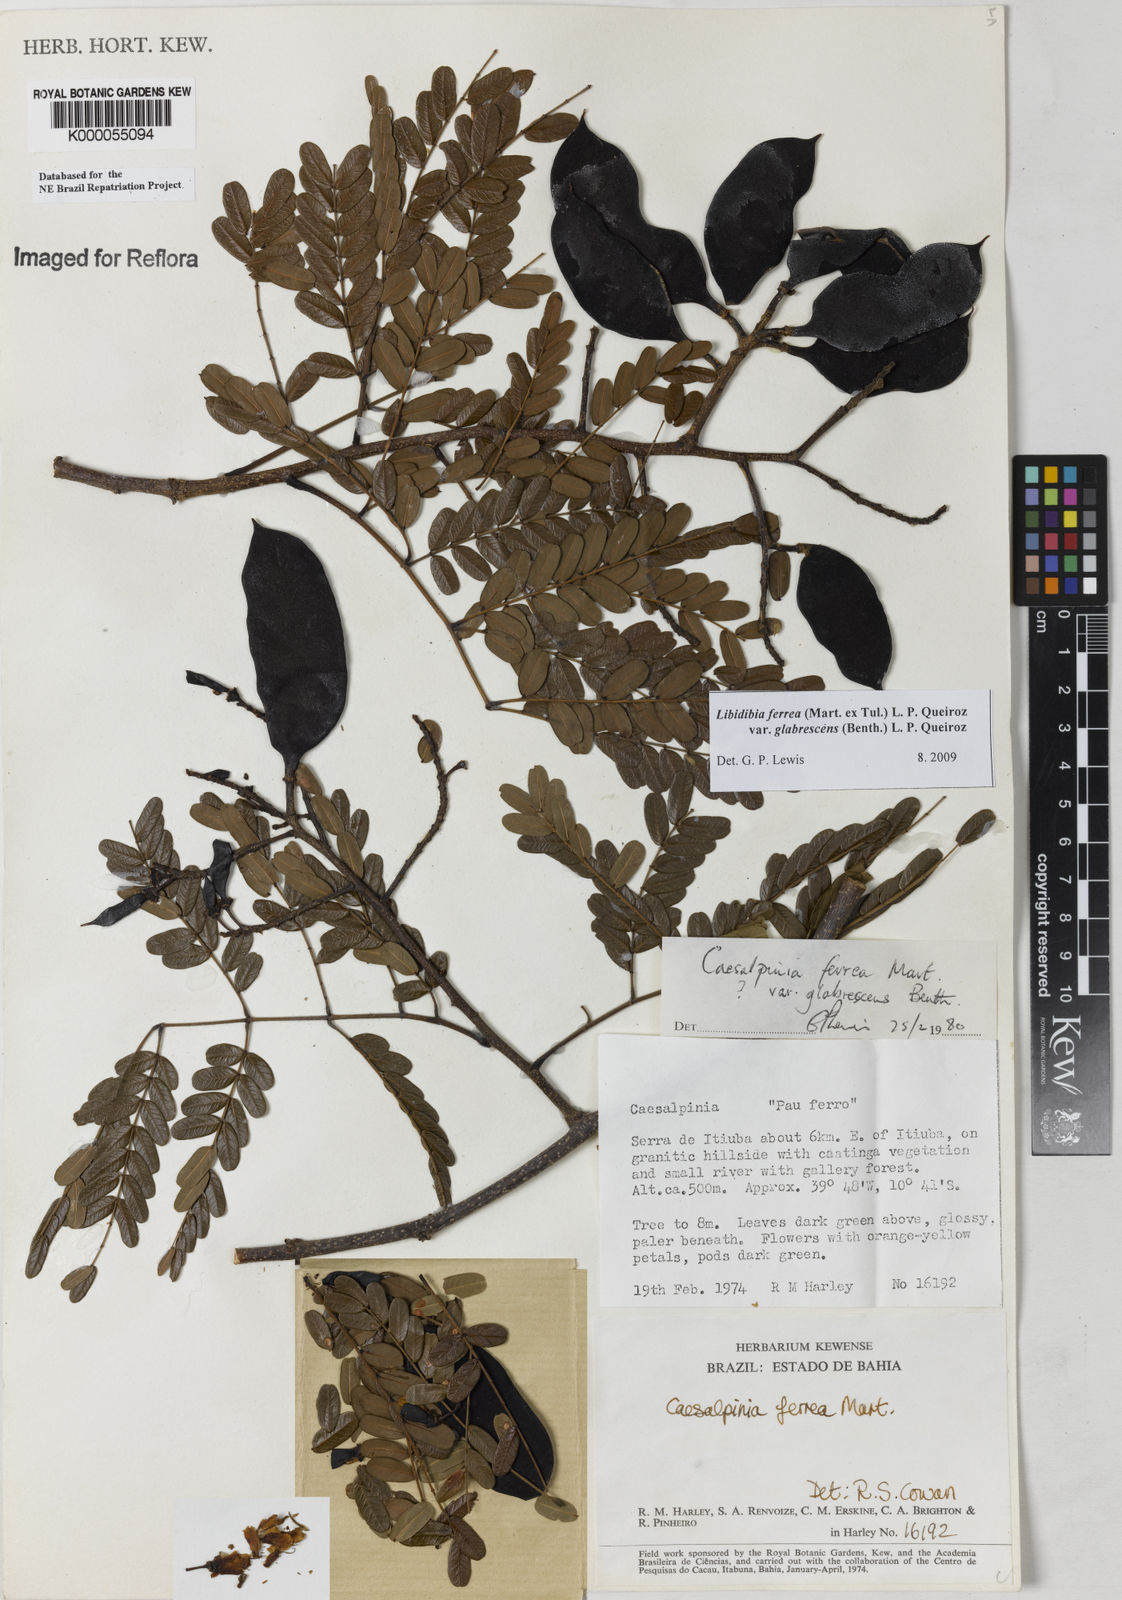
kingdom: Plantae
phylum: Tracheophyta
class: Magnoliopsida
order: Fabales
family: Fabaceae
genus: Libidibia
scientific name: Libidibia ferrea
